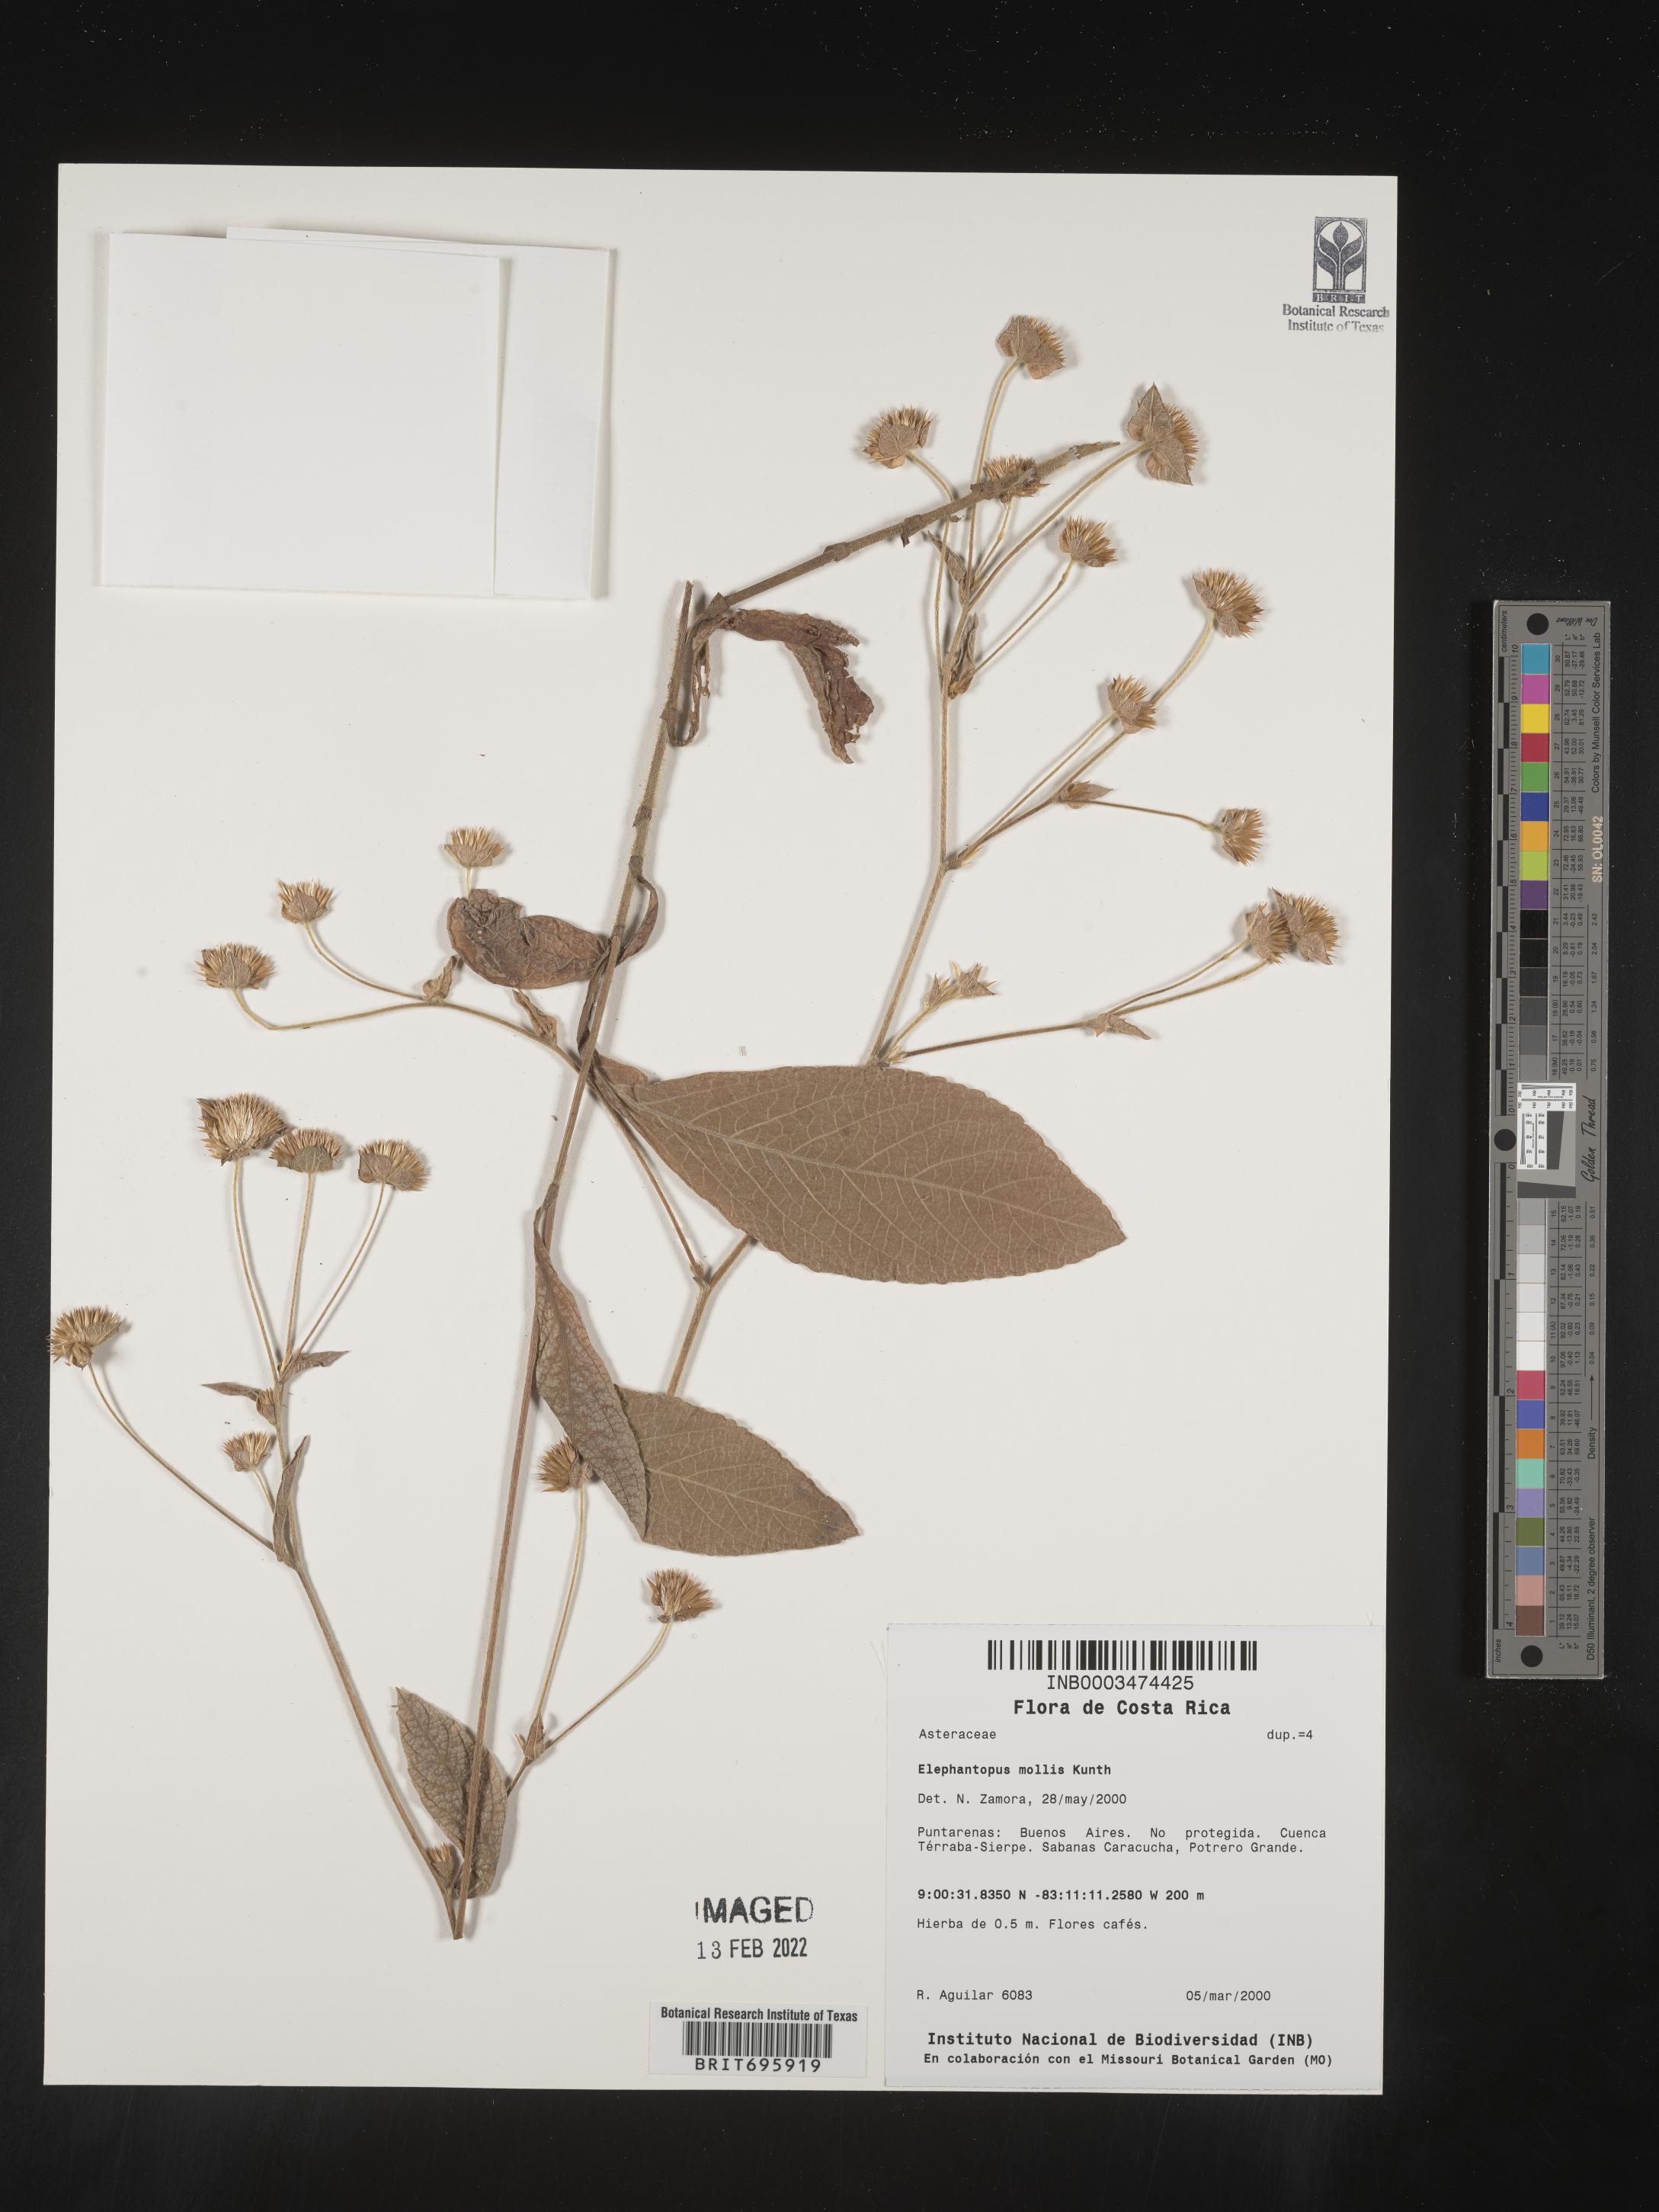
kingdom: Plantae
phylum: Tracheophyta
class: Magnoliopsida
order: Asterales
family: Asteraceae
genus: Elephantopus
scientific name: Elephantopus
